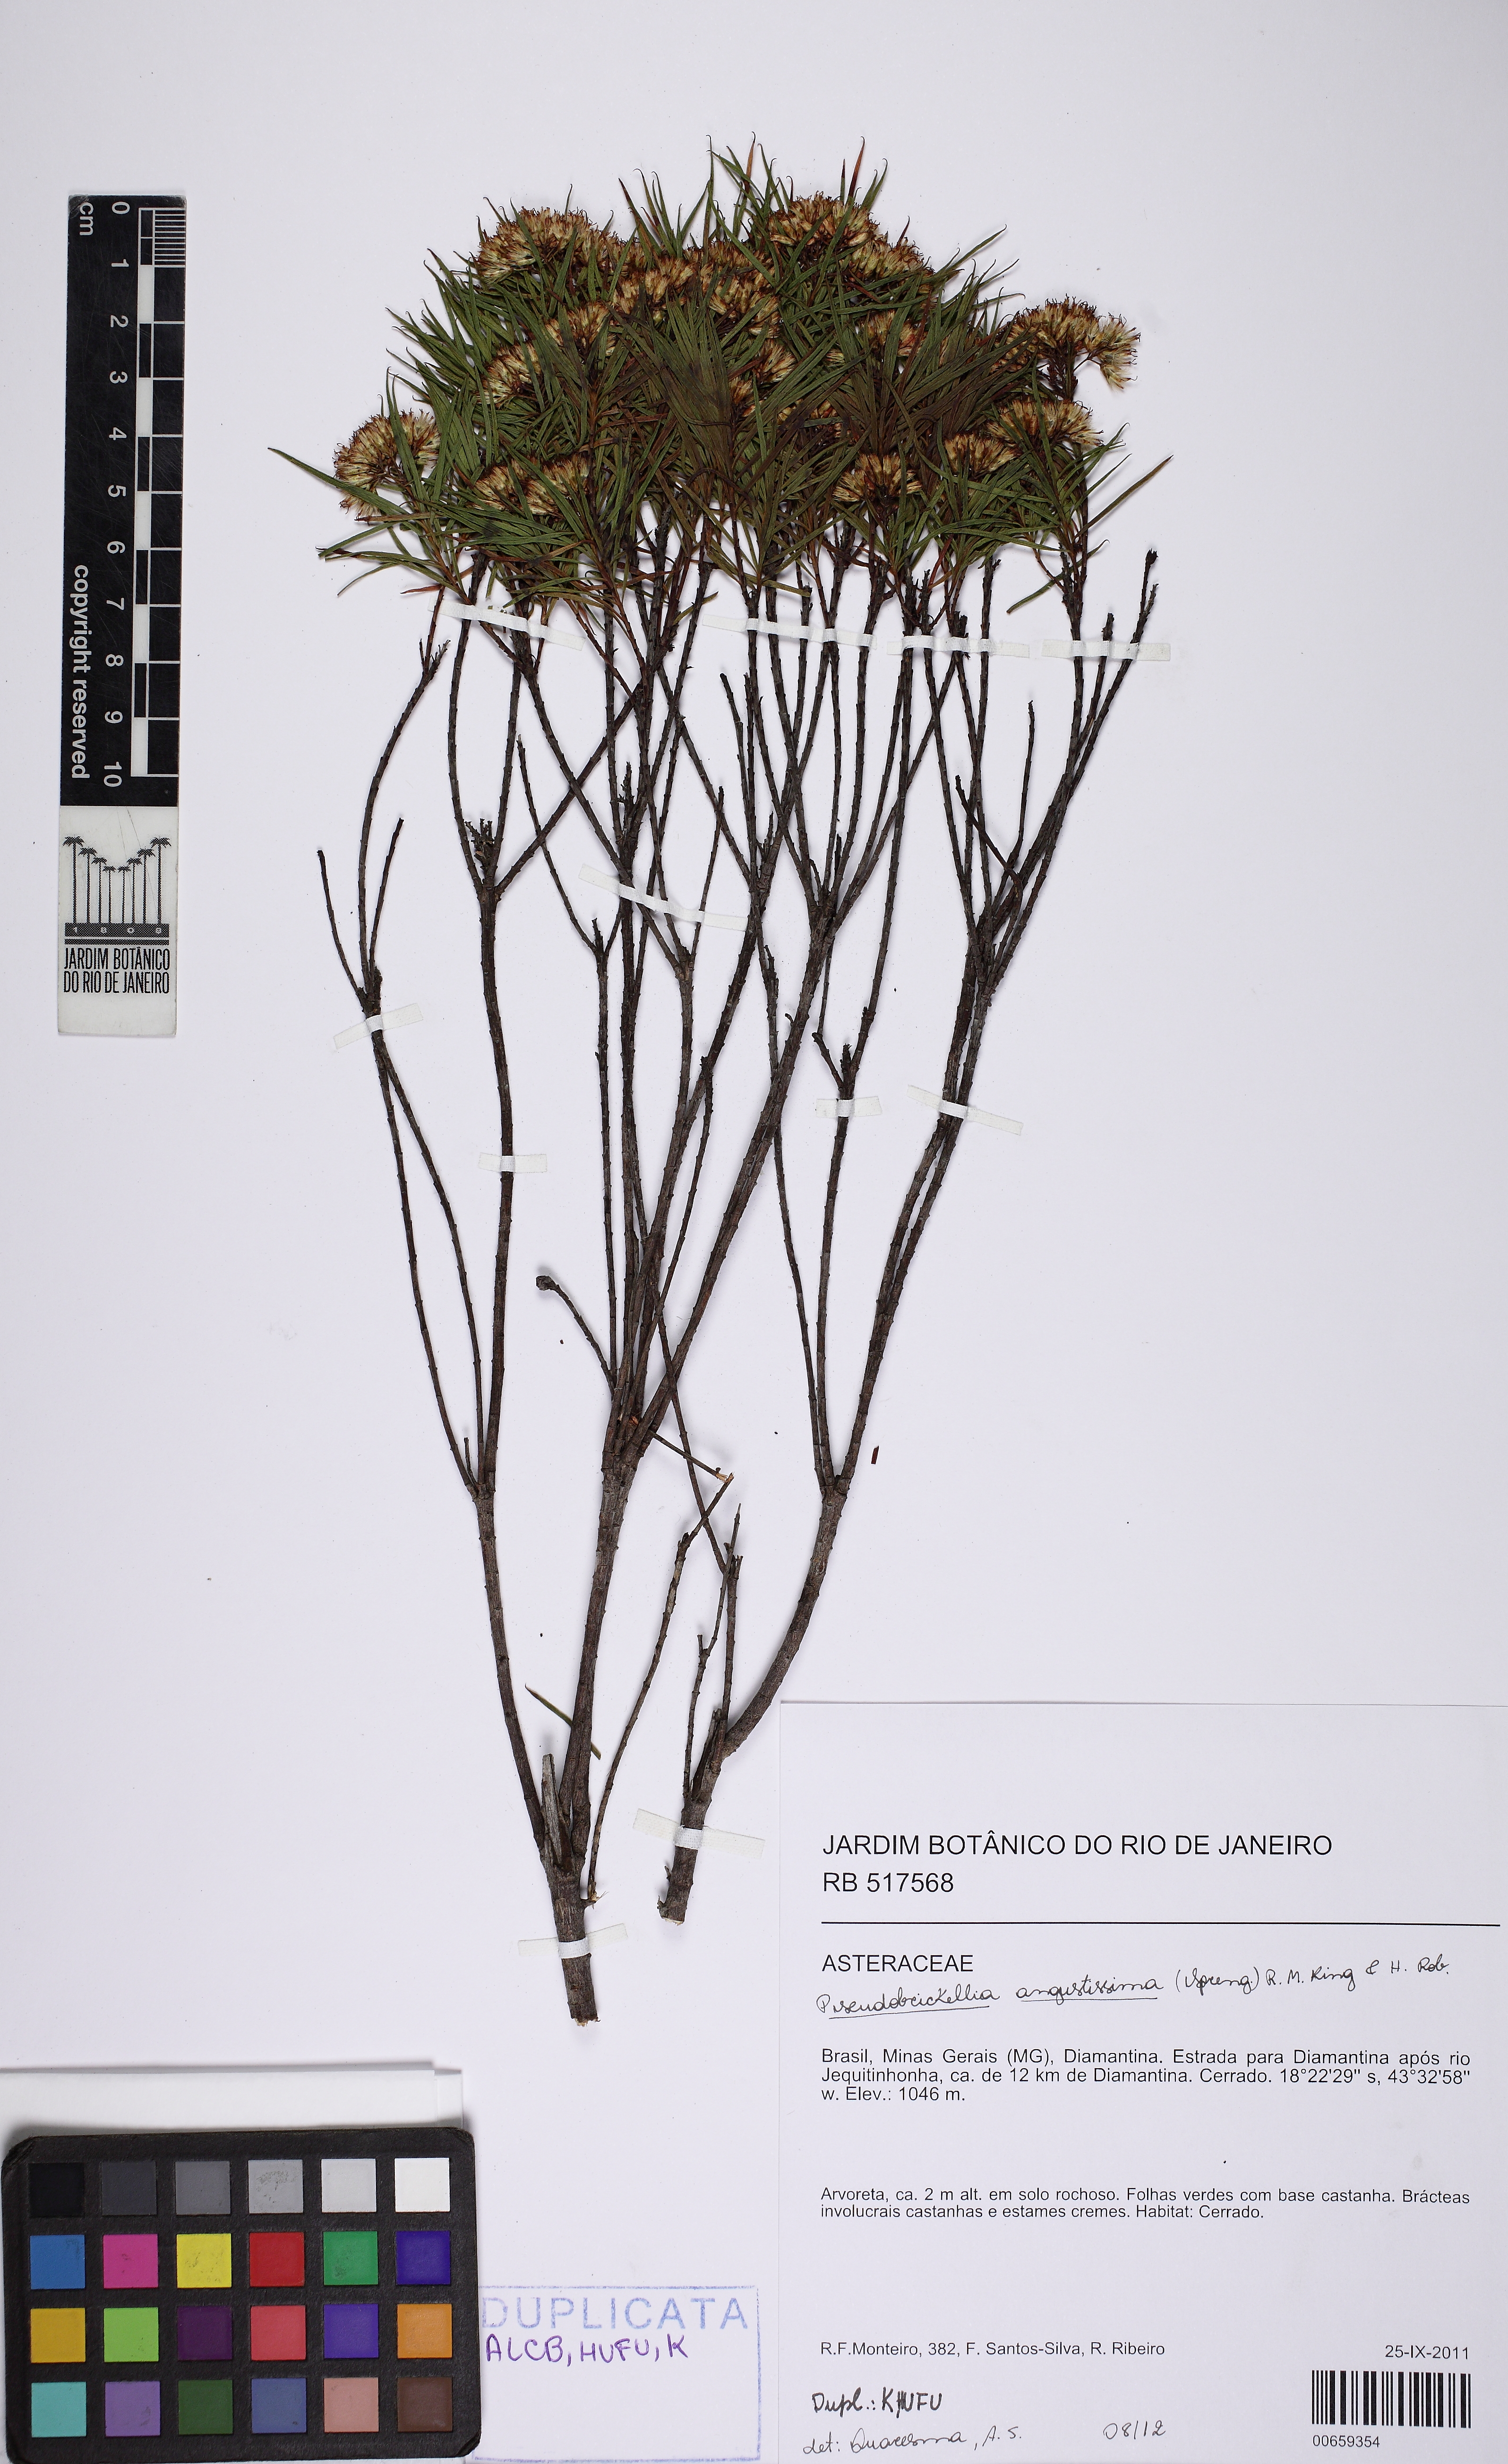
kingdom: Plantae
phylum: Tracheophyta
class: Magnoliopsida
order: Asterales
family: Asteraceae
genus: Pseudobrickellia
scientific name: Pseudobrickellia angustissima
